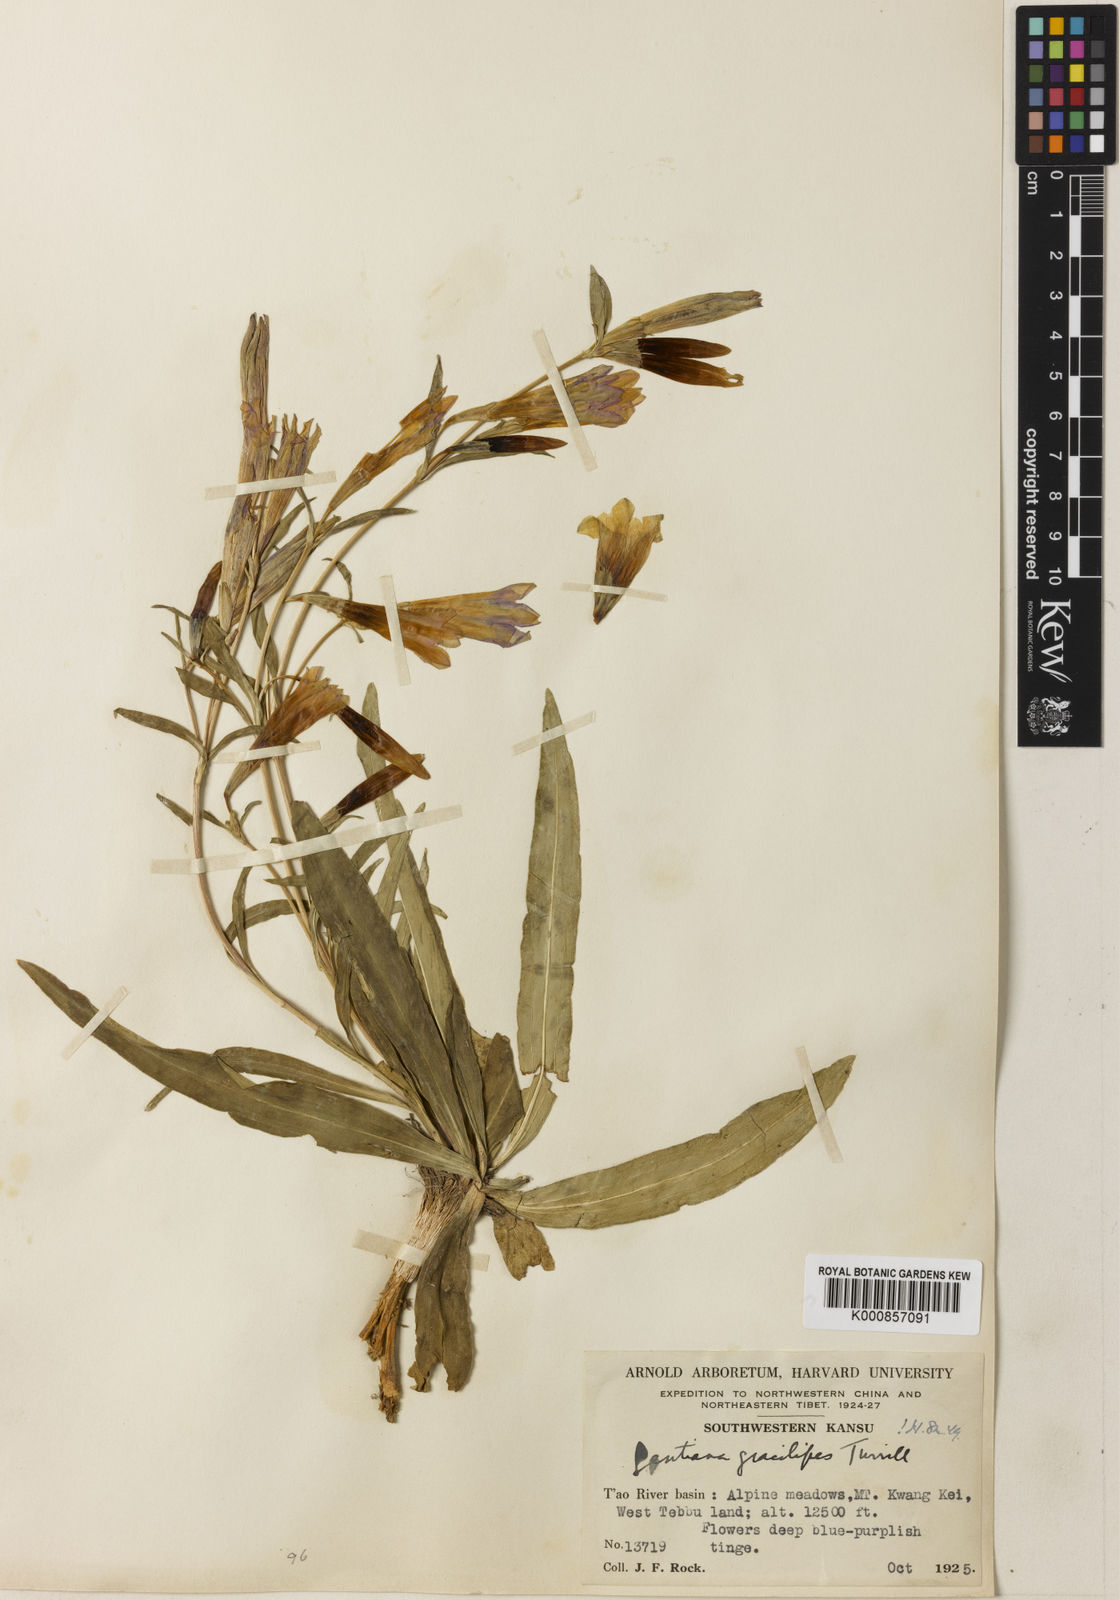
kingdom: Plantae
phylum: Tracheophyta
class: Magnoliopsida
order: Gentianales
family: Gentianaceae
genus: Gentiana
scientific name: Gentiana dahurica
